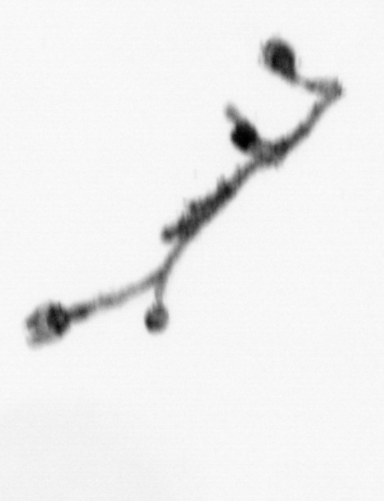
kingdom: Animalia
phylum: Cnidaria
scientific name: Cnidaria
